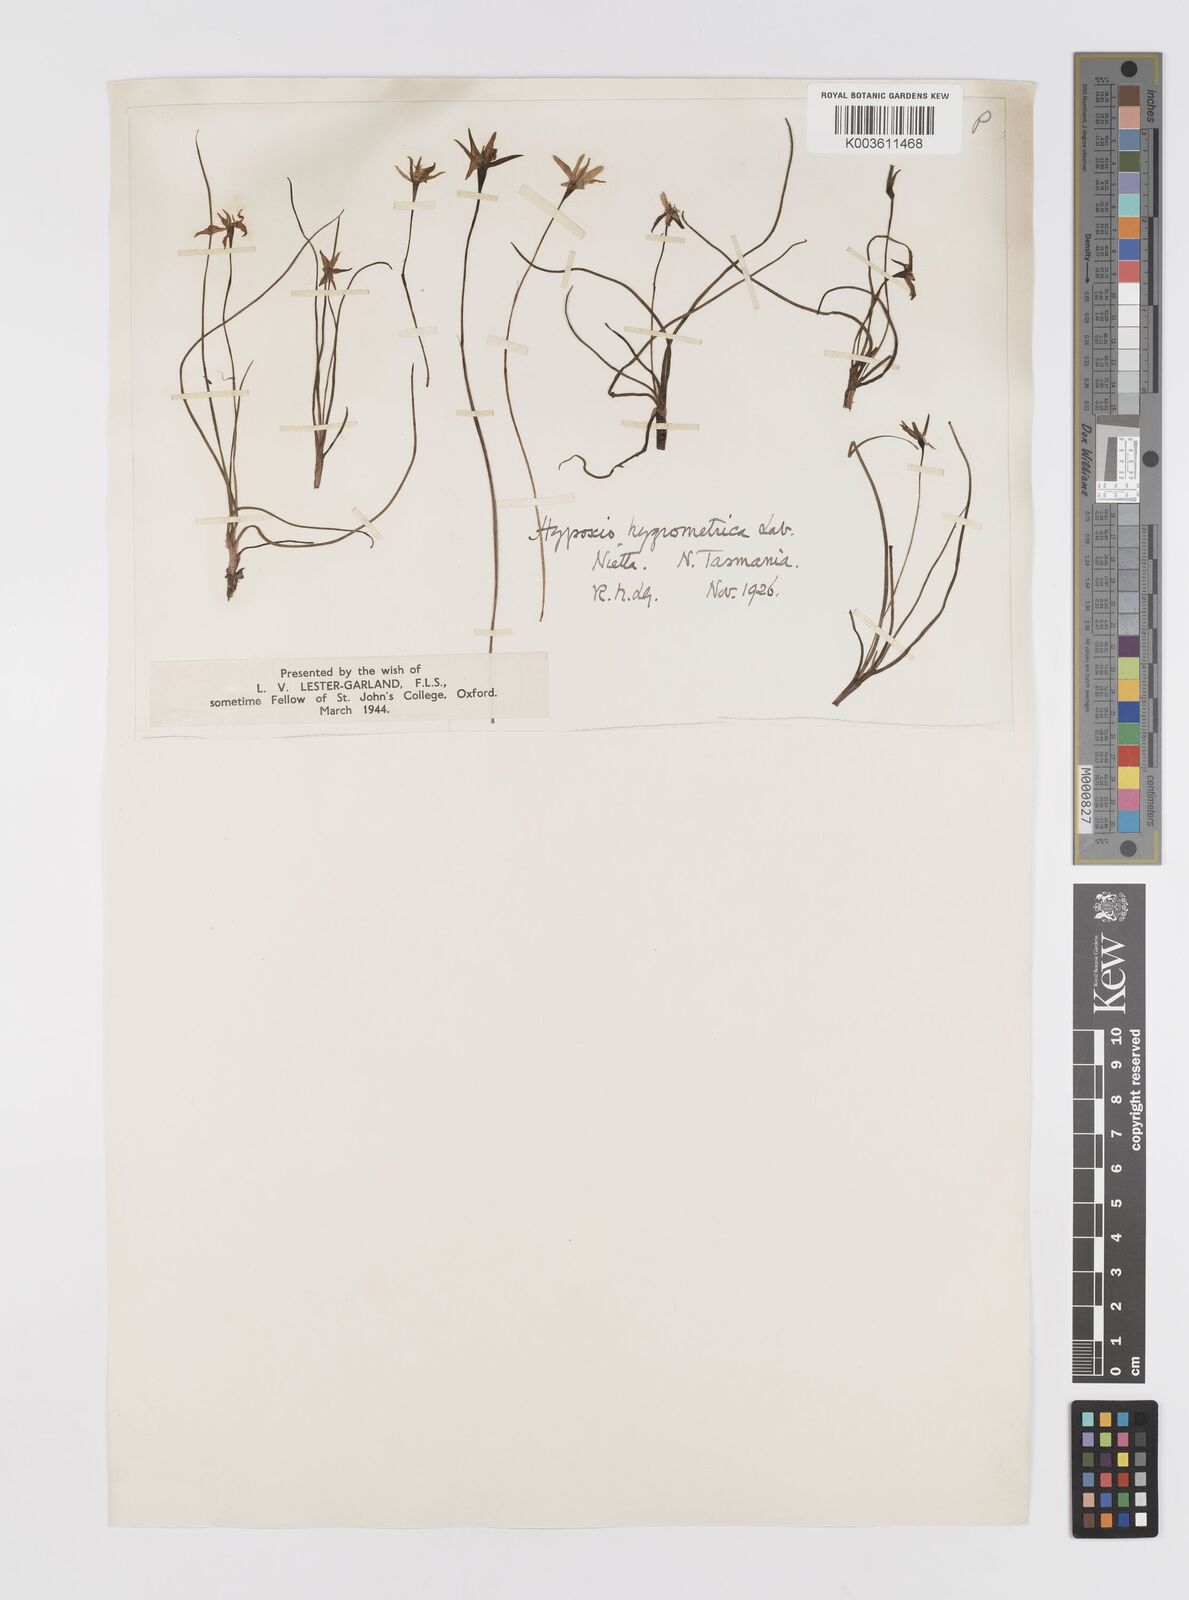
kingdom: Plantae
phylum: Tracheophyta
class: Liliopsida
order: Asparagales
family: Hypoxidaceae
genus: Hypoxis
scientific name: Hypoxis hygrometrica
